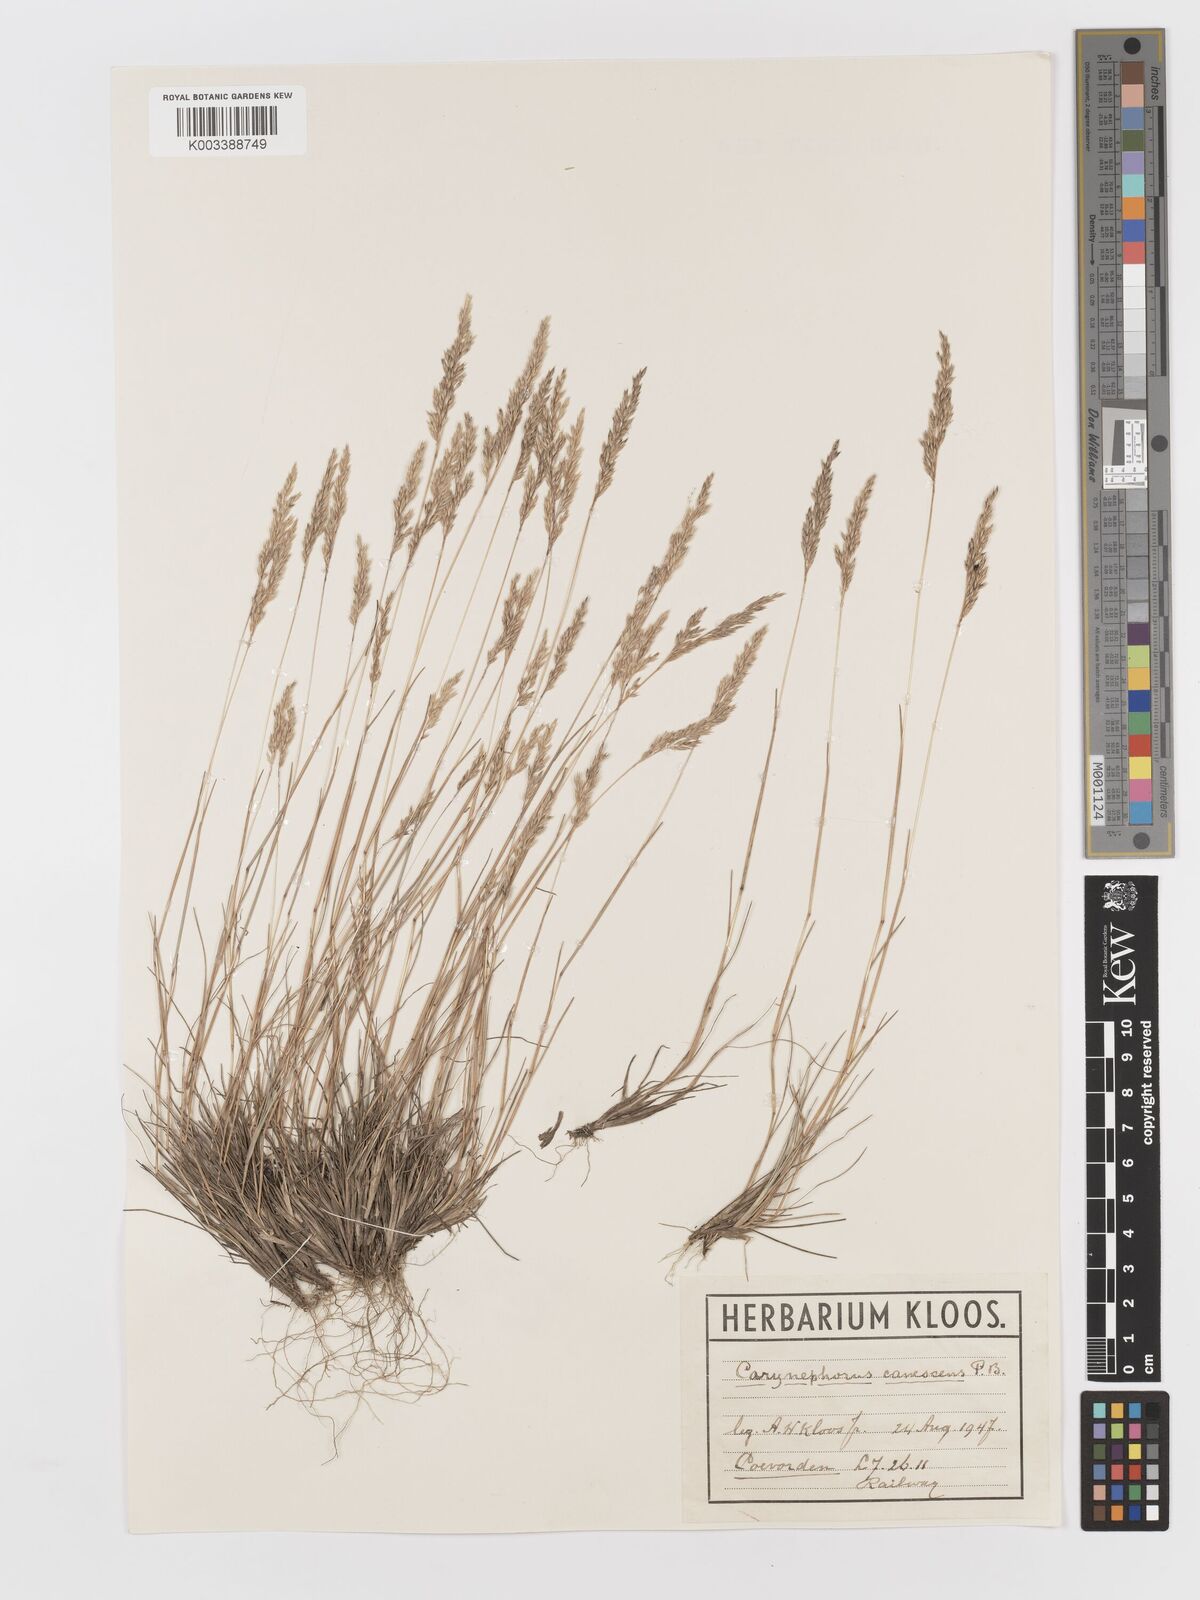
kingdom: Plantae
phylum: Tracheophyta
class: Liliopsida
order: Poales
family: Poaceae
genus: Corynephorus
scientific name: Corynephorus canescens
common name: Grey hair-grass
